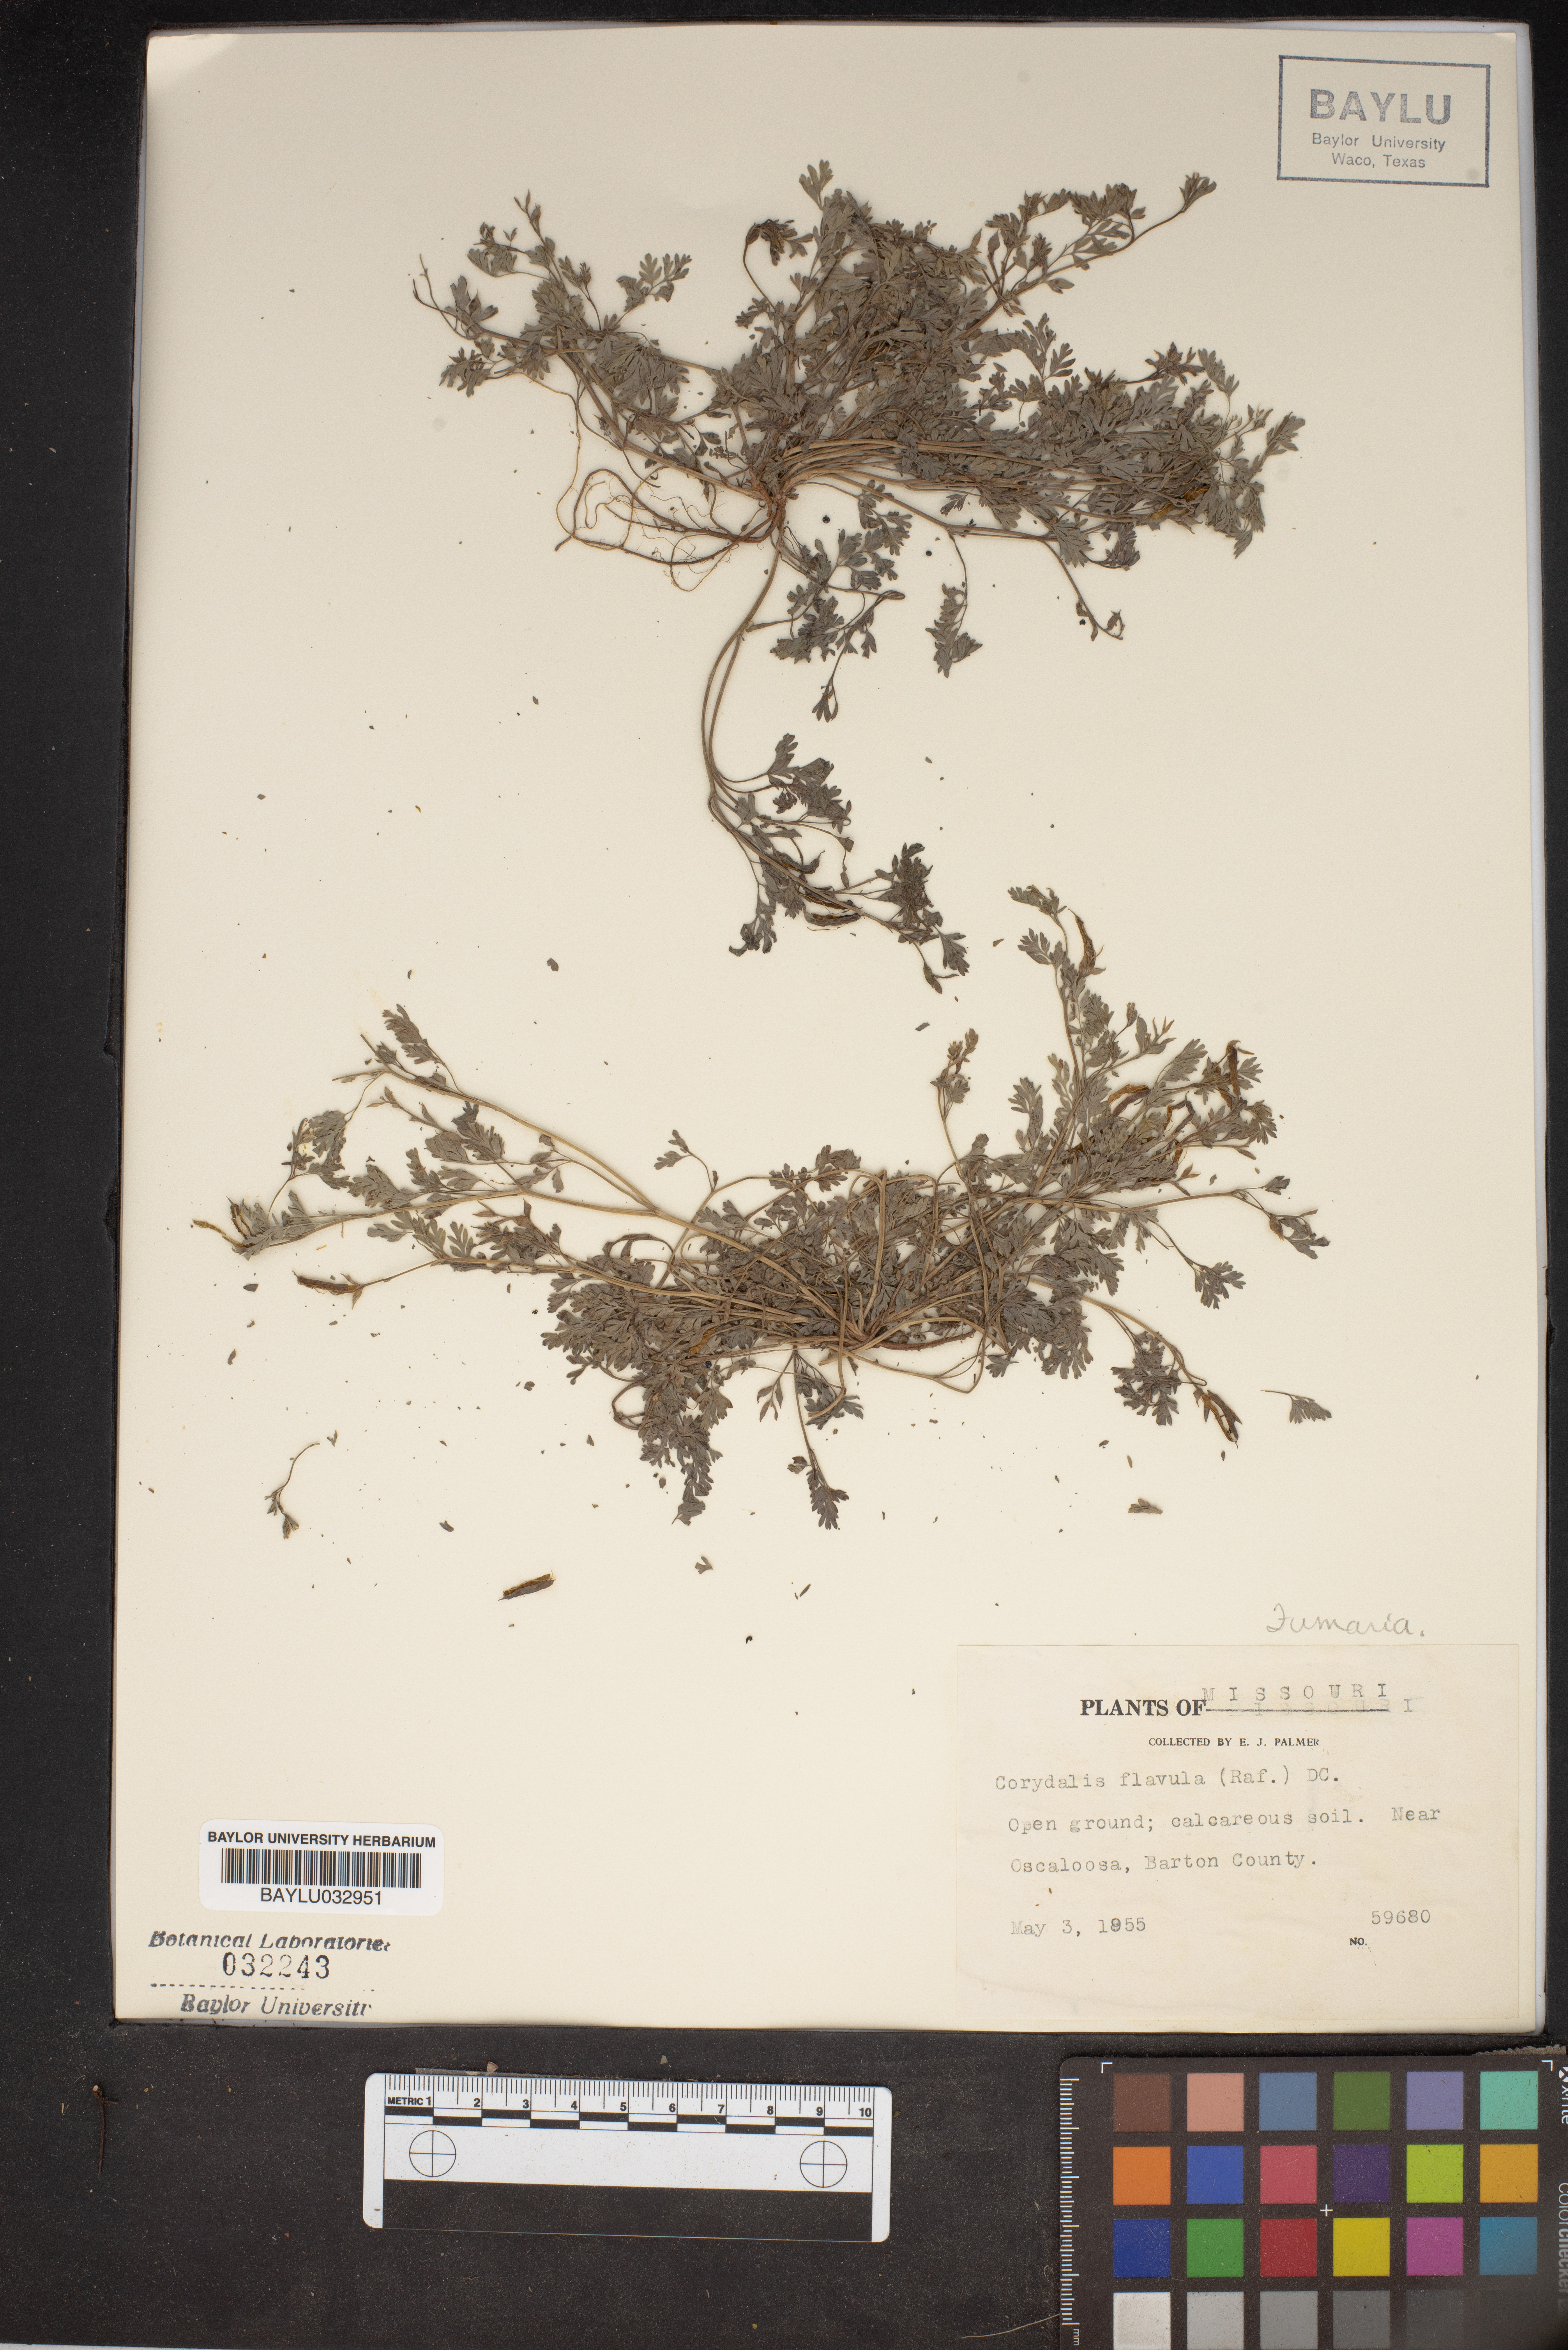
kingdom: Plantae
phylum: Tracheophyta
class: Magnoliopsida
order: Ranunculales
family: Papaveraceae
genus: Corydalis
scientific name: Corydalis flavula
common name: Yellow corydalis
